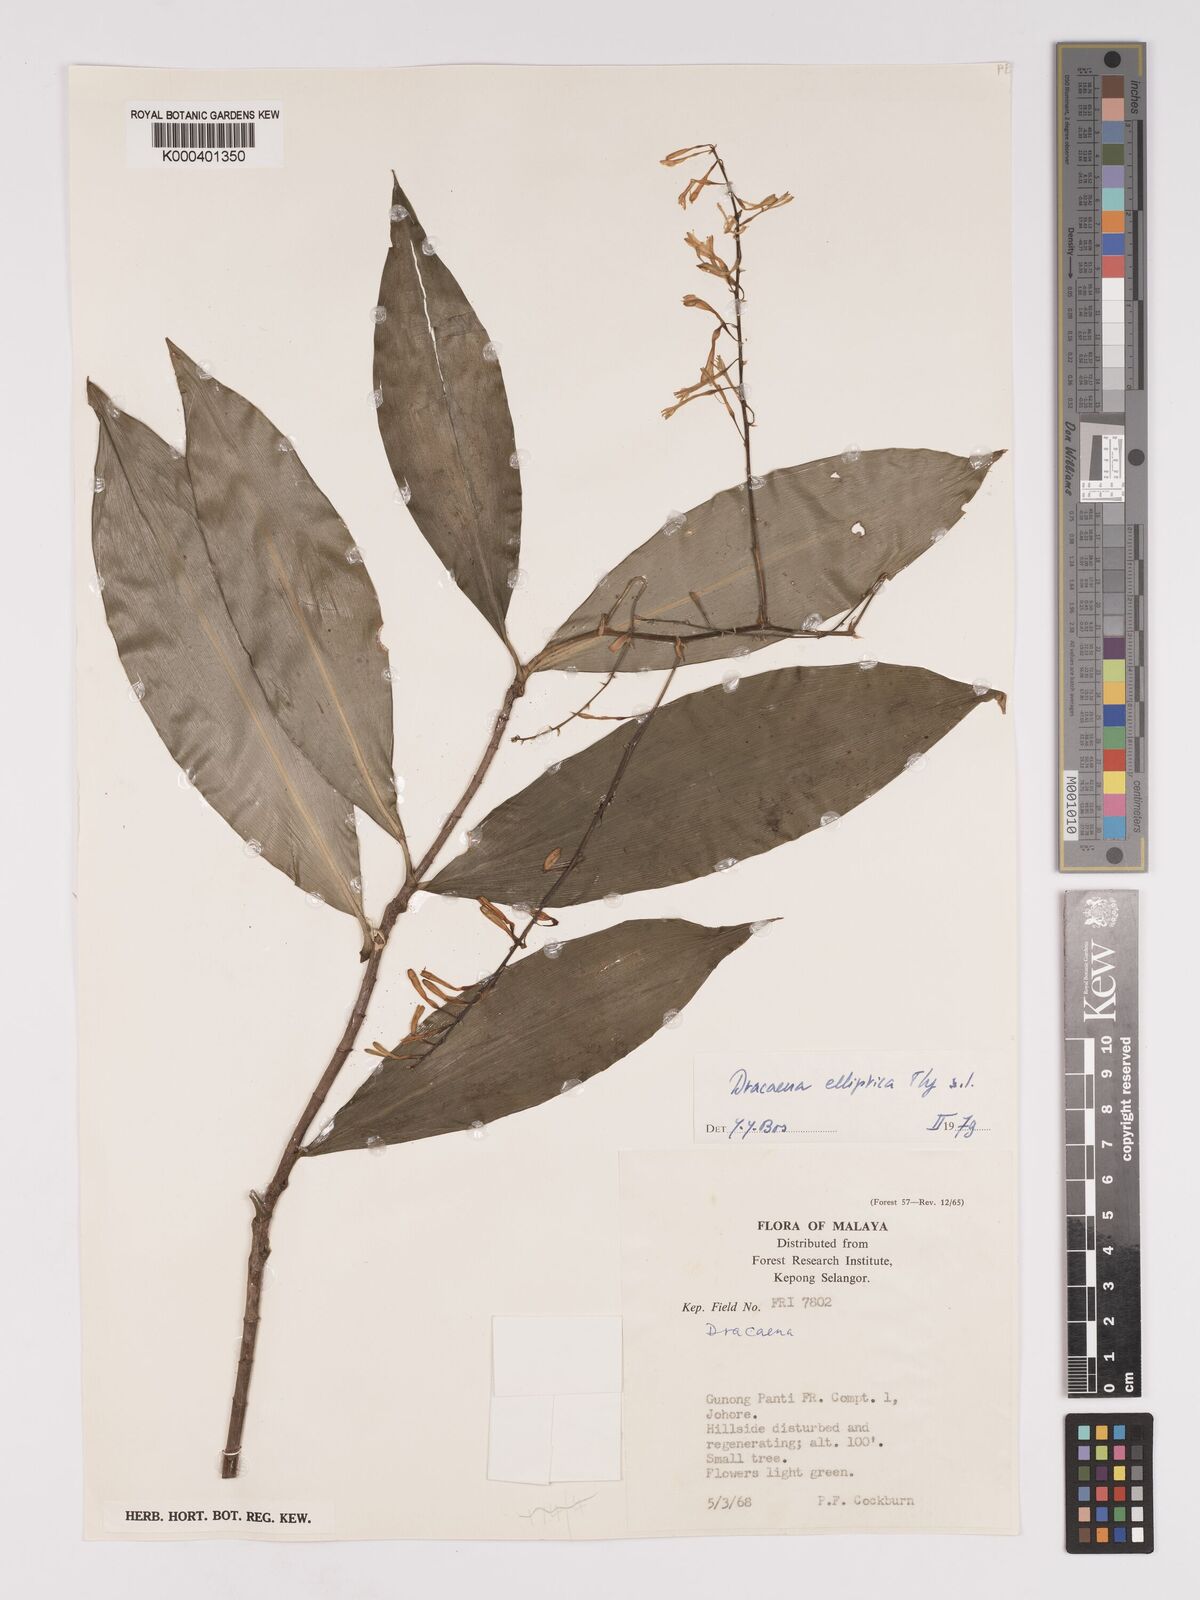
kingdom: Plantae
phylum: Tracheophyta
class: Liliopsida
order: Asparagales
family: Asparagaceae
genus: Dracaena
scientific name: Dracaena elliptica
